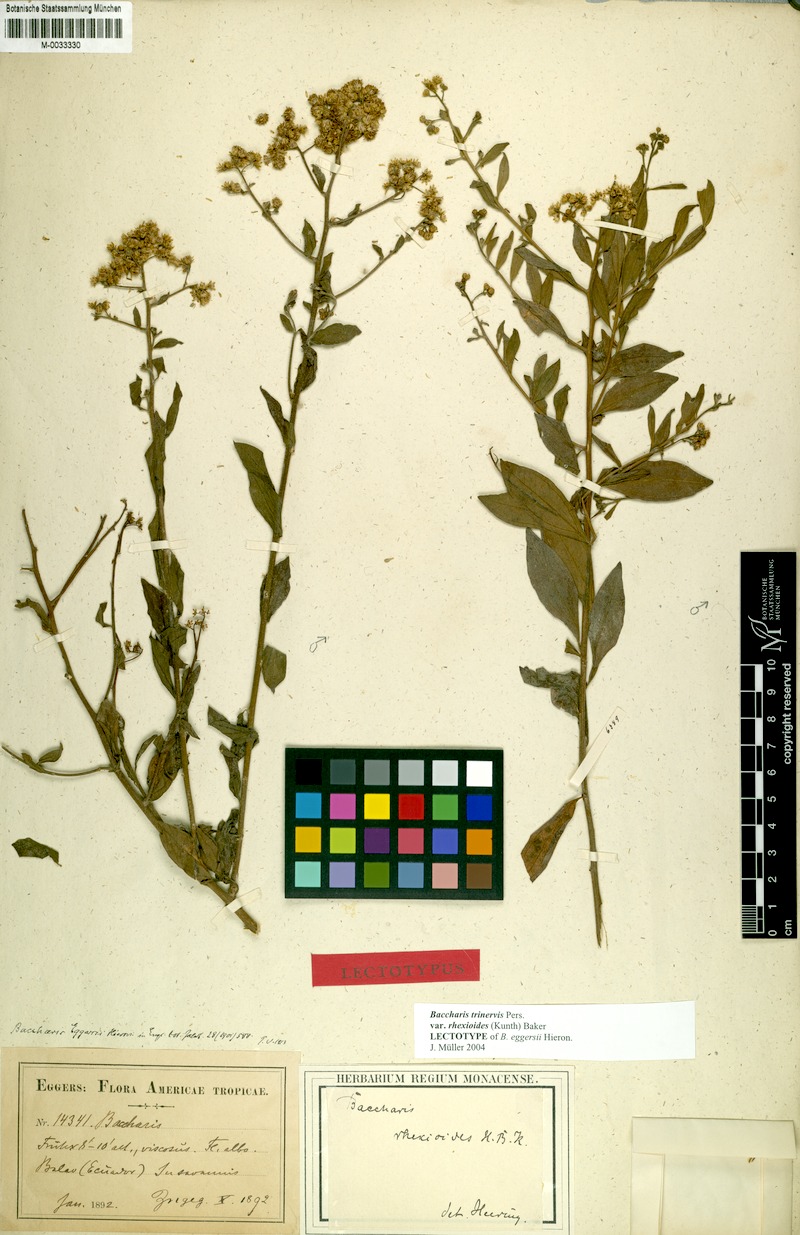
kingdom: Plantae
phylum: Tracheophyta
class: Magnoliopsida
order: Asterales
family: Asteraceae
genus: Baccharis
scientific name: Baccharis trinervis
